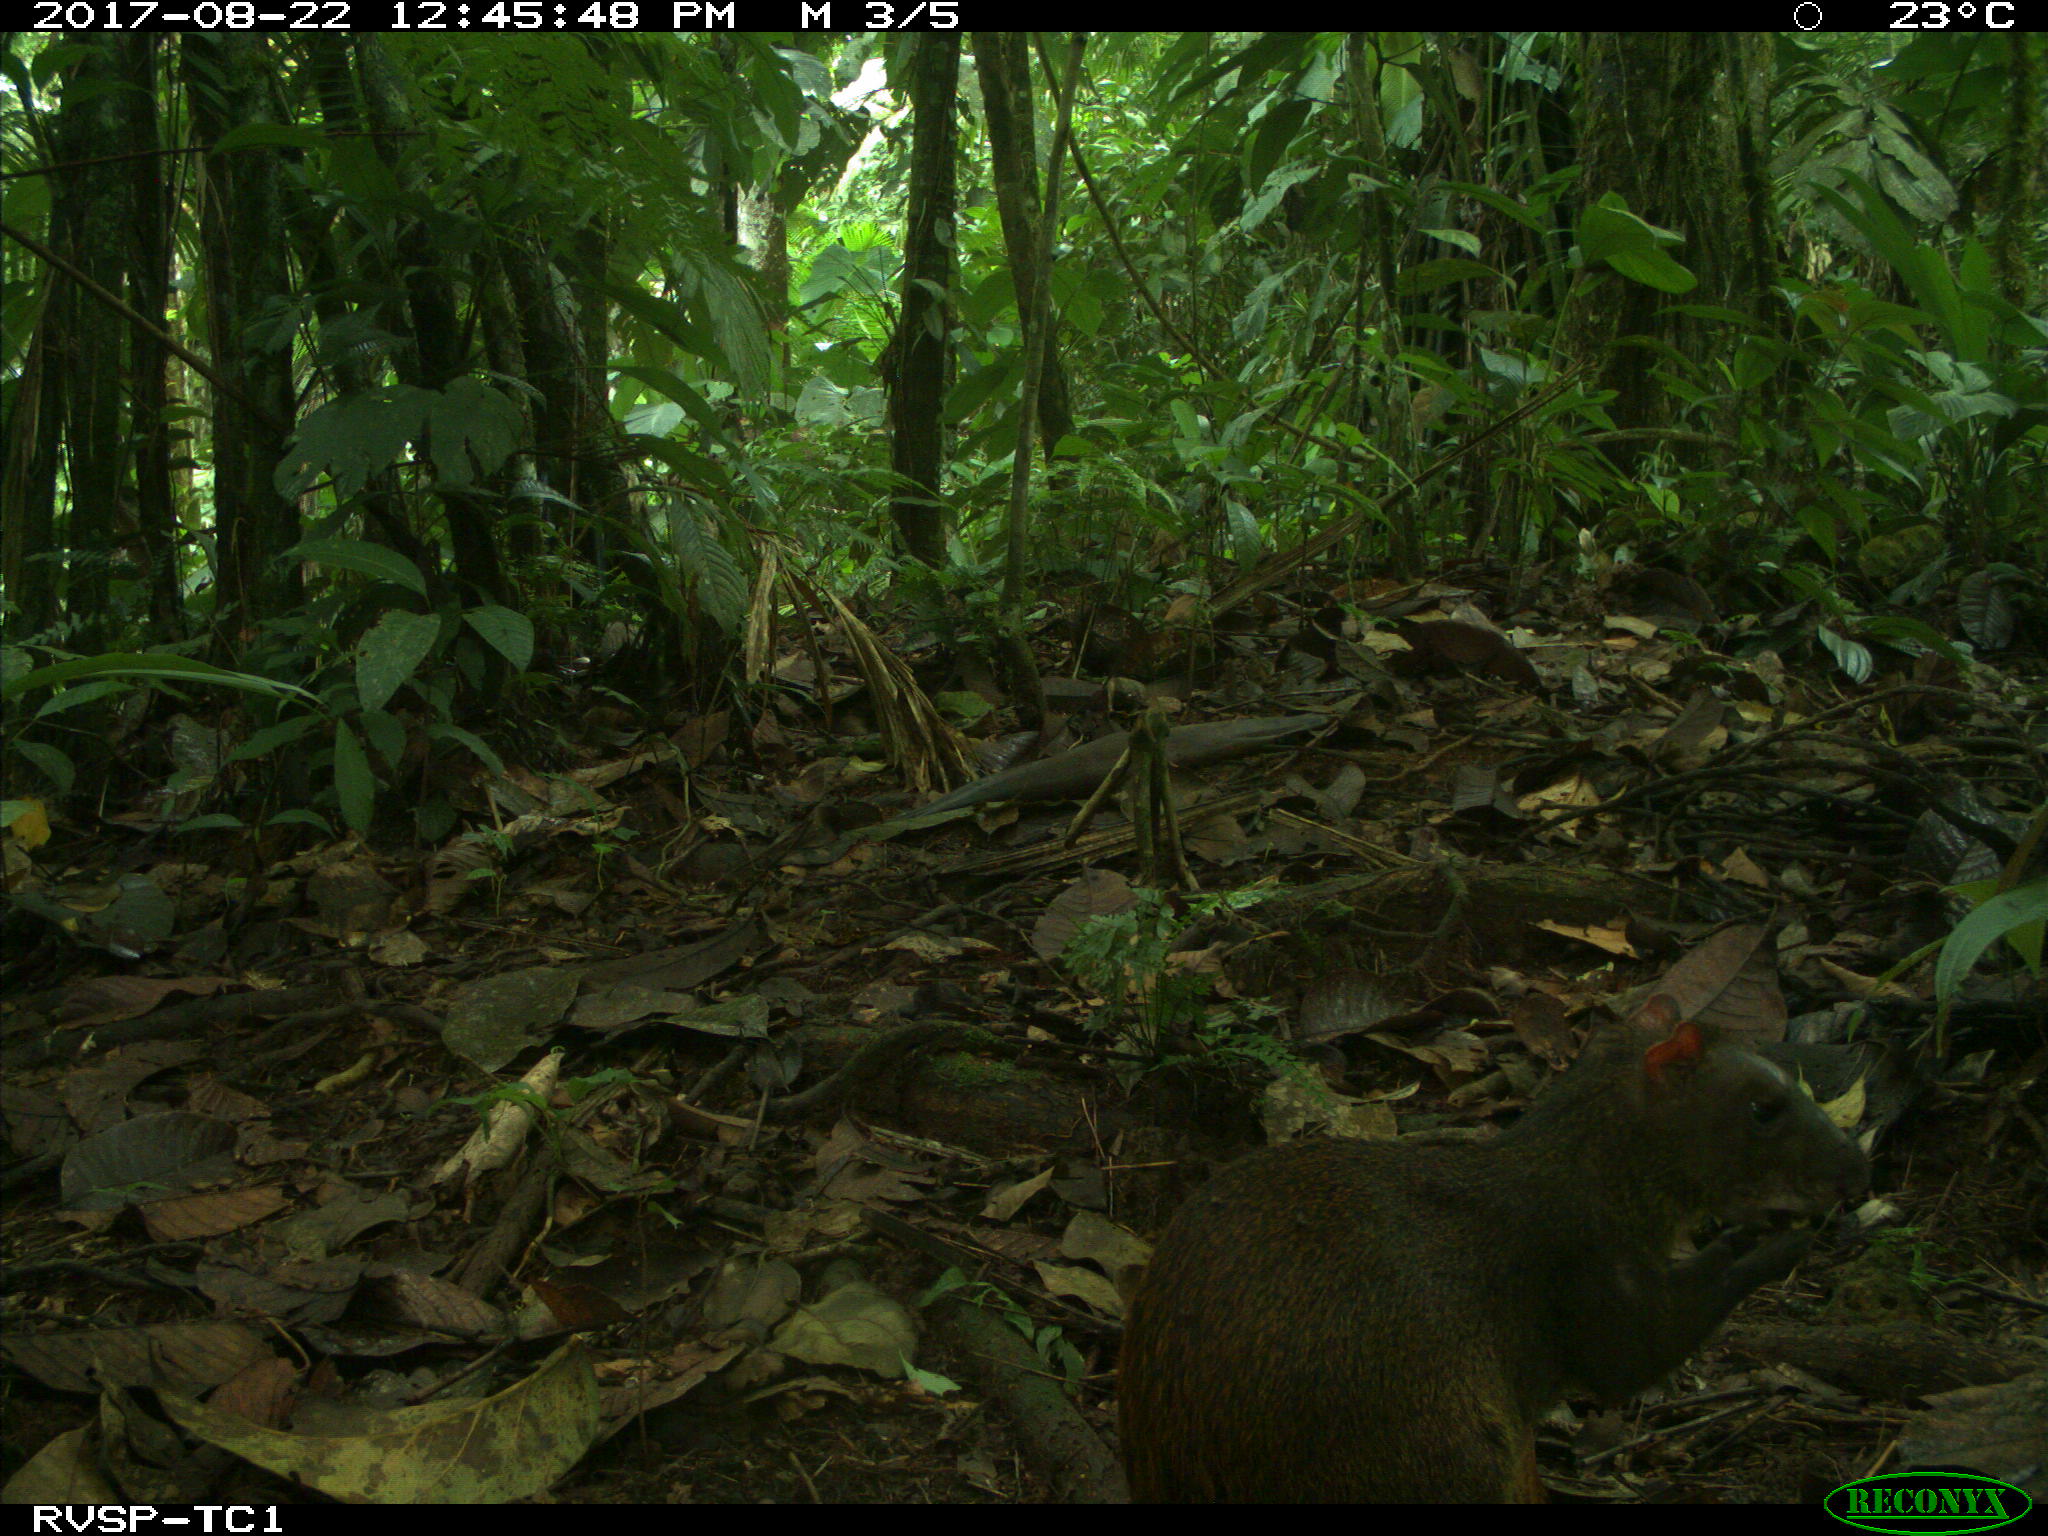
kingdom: Animalia
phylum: Chordata
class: Mammalia
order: Rodentia
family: Dasyproctidae
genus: Dasyprocta
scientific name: Dasyprocta punctata
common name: Central american agouti
